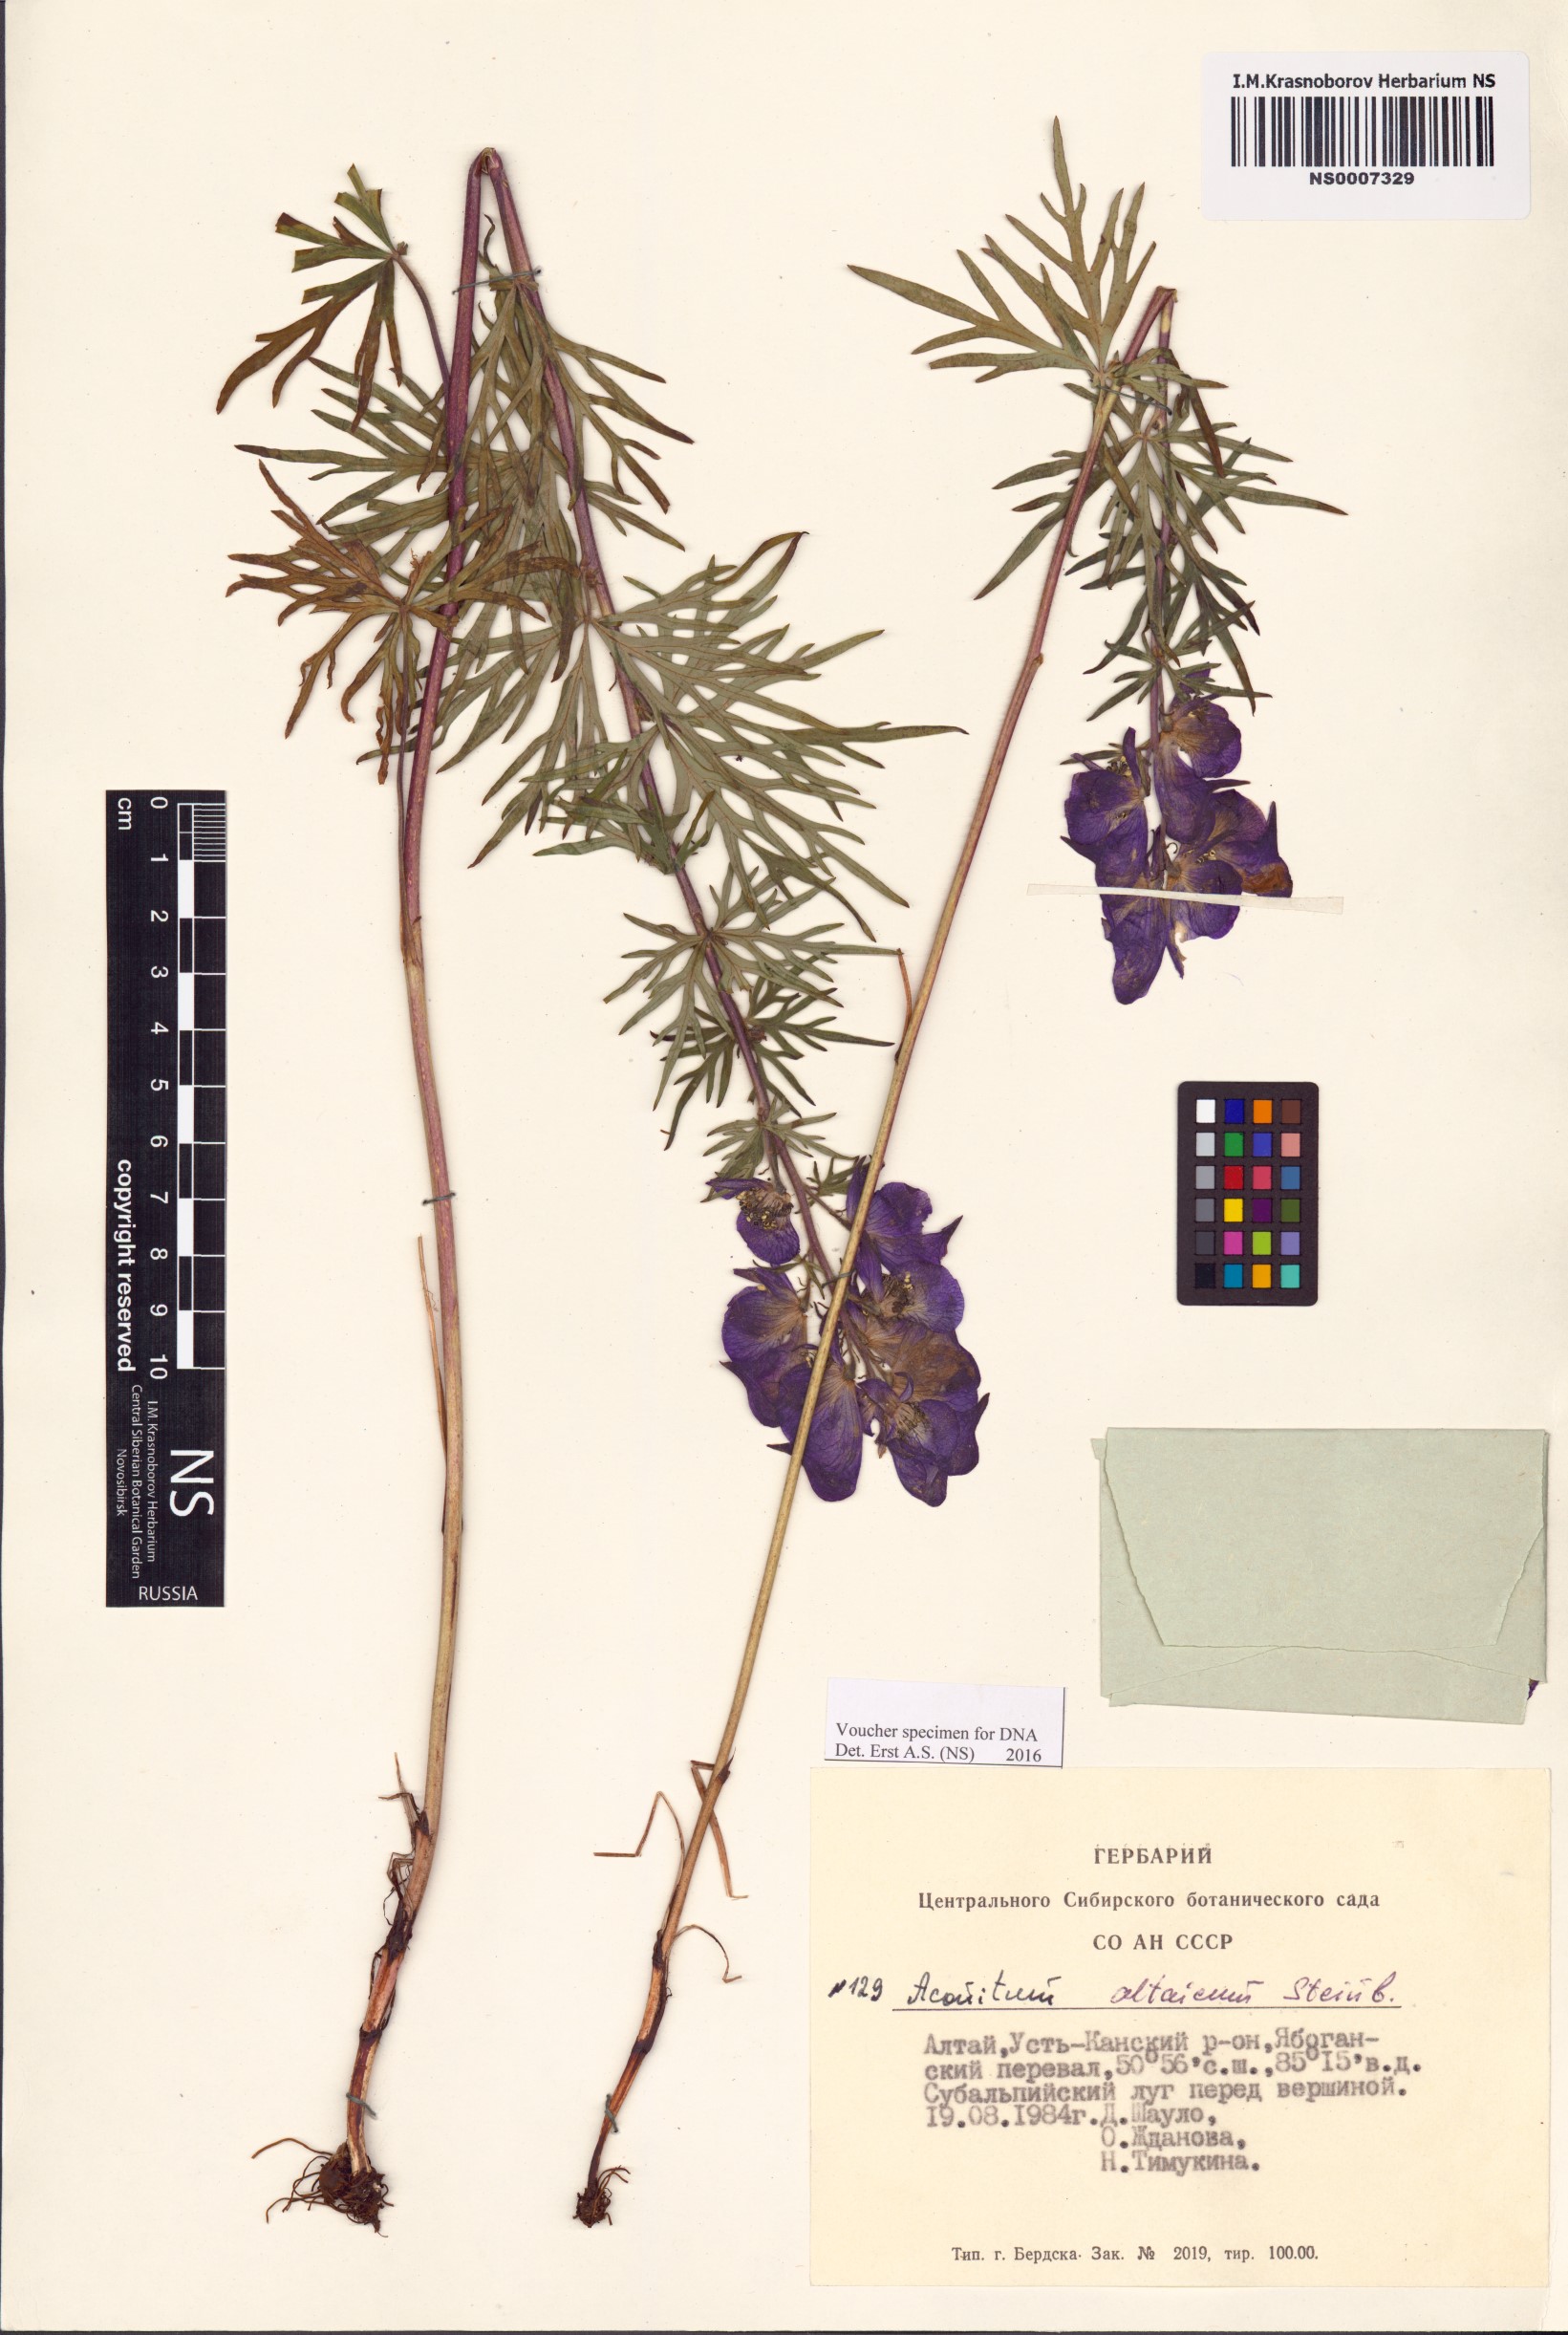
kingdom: Plantae
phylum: Tracheophyta
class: Magnoliopsida
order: Ranunculales
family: Ranunculaceae
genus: Aconitum
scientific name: Aconitum glandulosum
